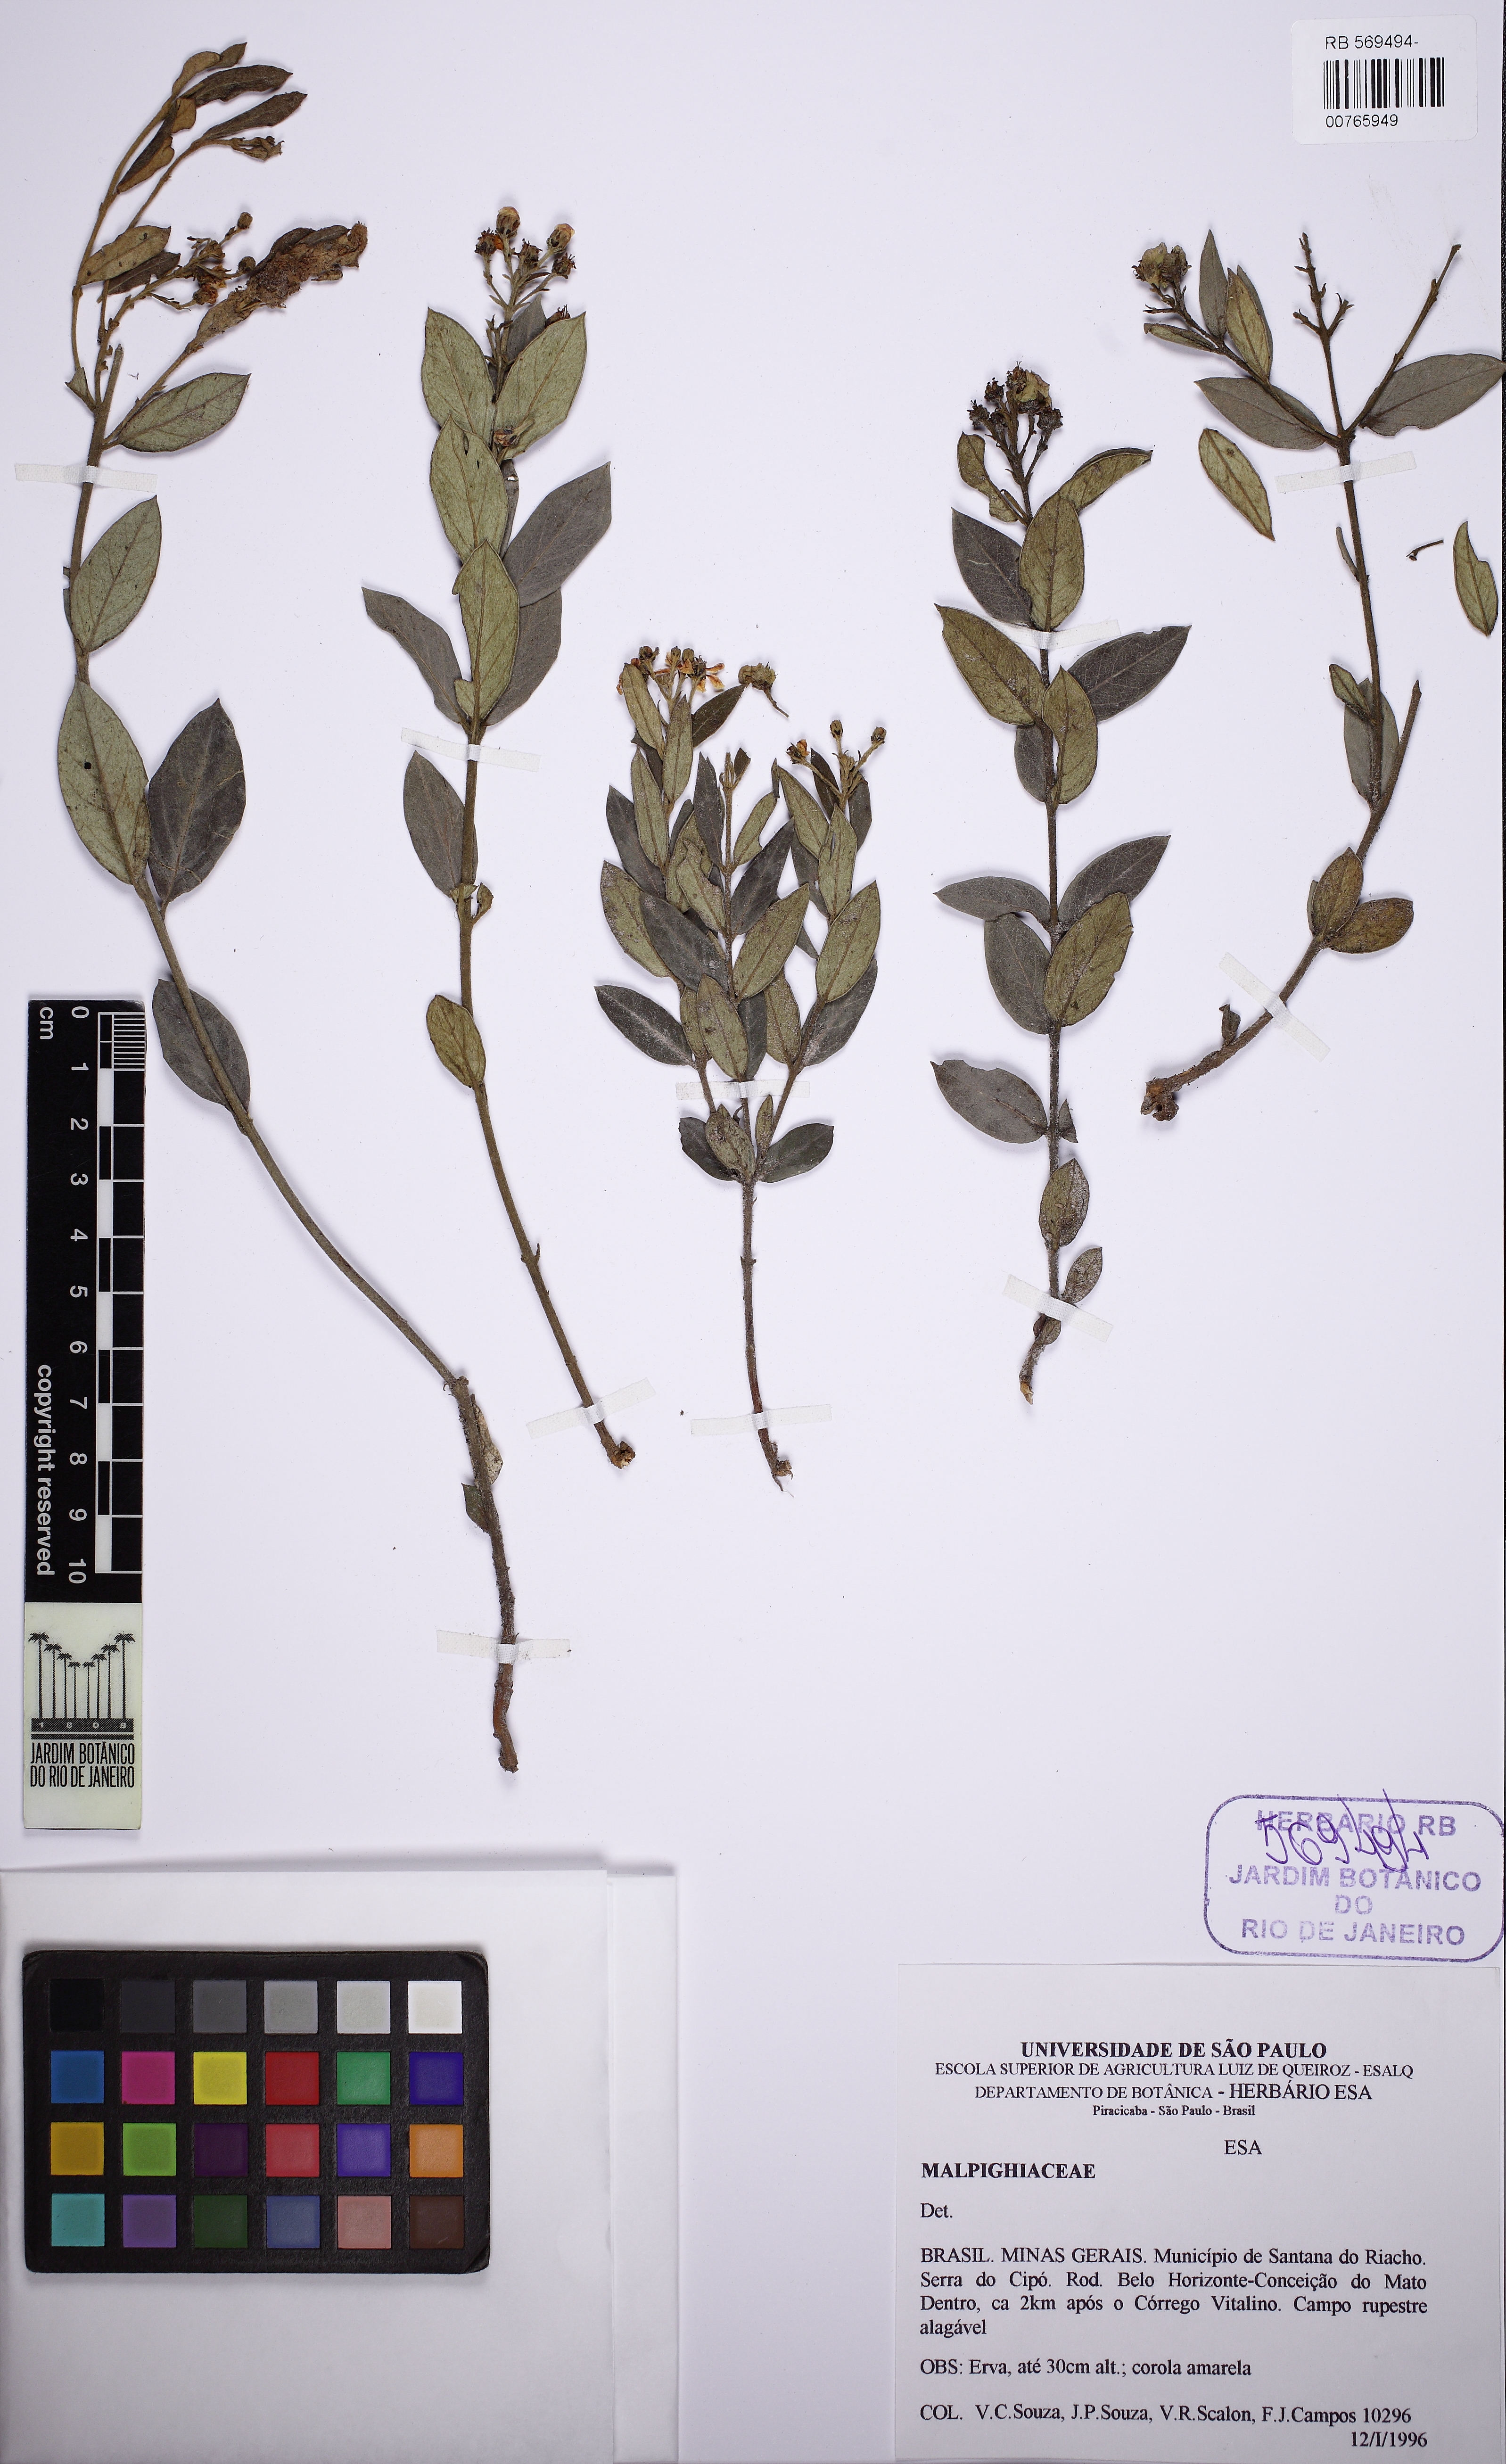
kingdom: Plantae
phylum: Tracheophyta
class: Magnoliopsida
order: Malpighiales
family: Malpighiaceae
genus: Glicophyllum
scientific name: Glicophyllum microphyllum
